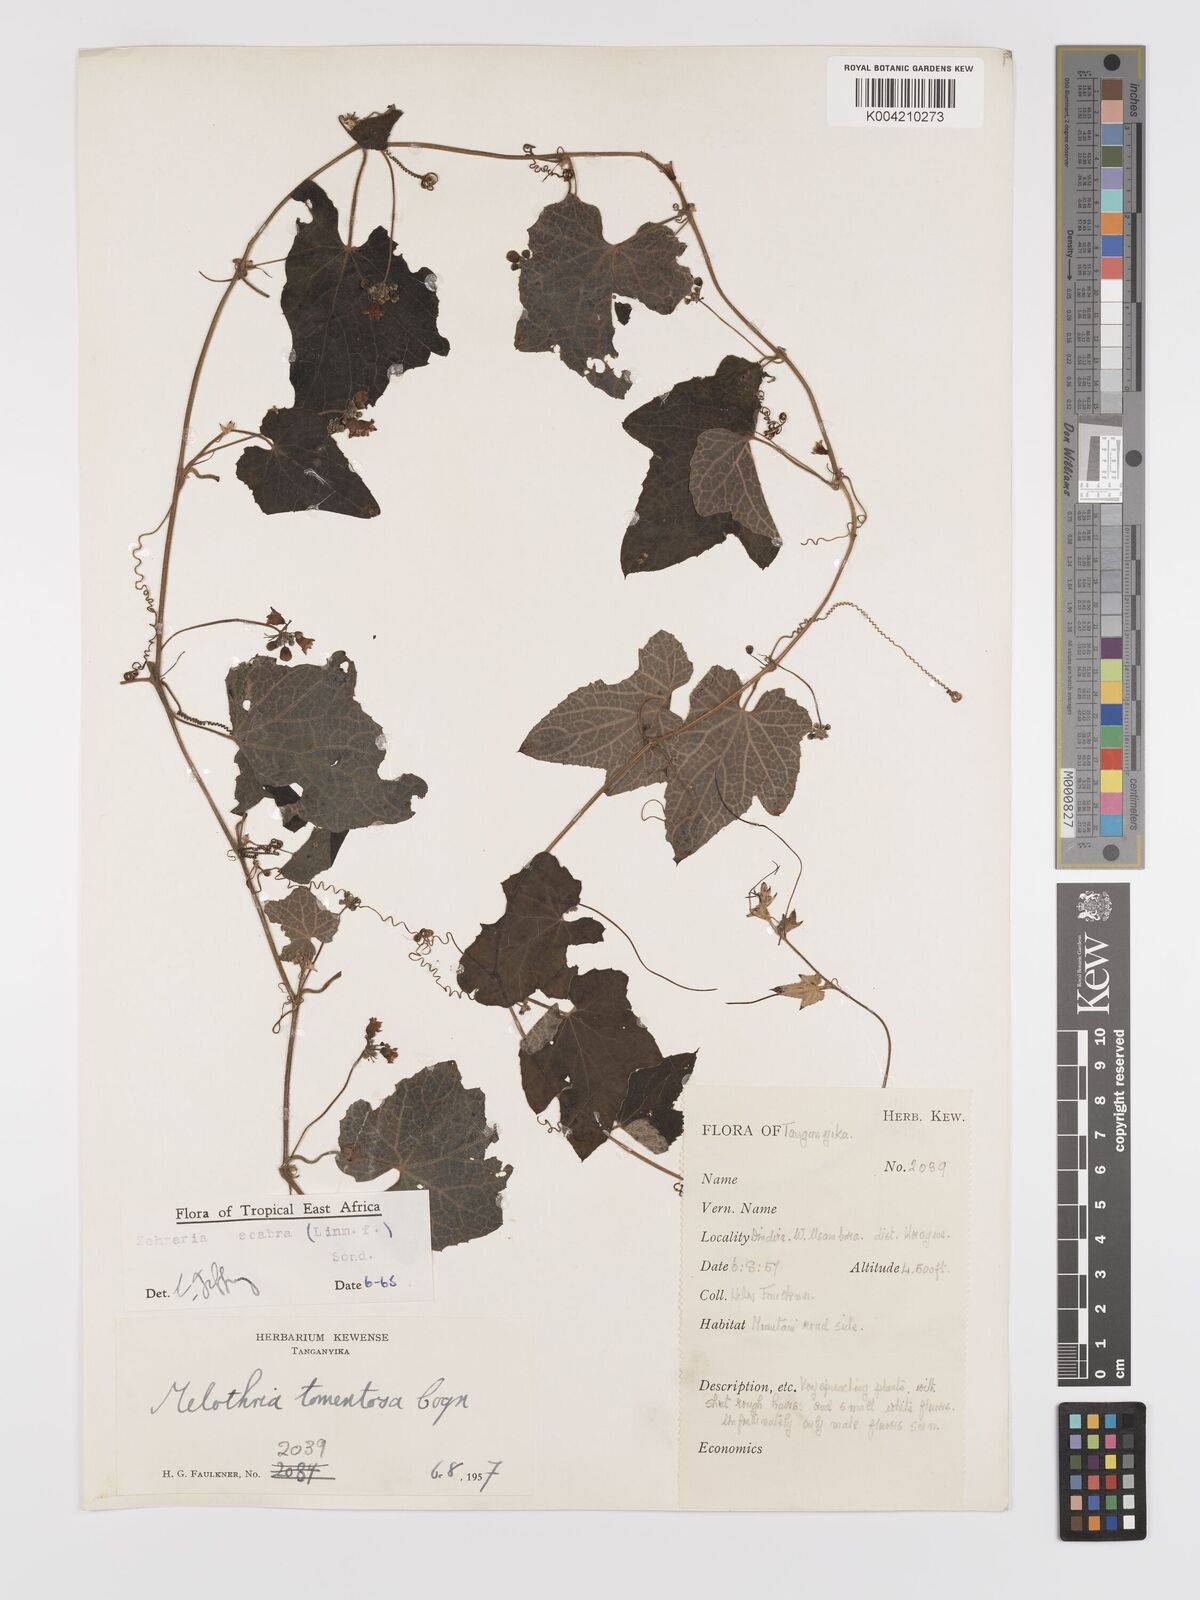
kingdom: Plantae
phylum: Tracheophyta
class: Magnoliopsida
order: Cucurbitales
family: Cucurbitaceae
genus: Zehneria
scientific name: Zehneria scabra
